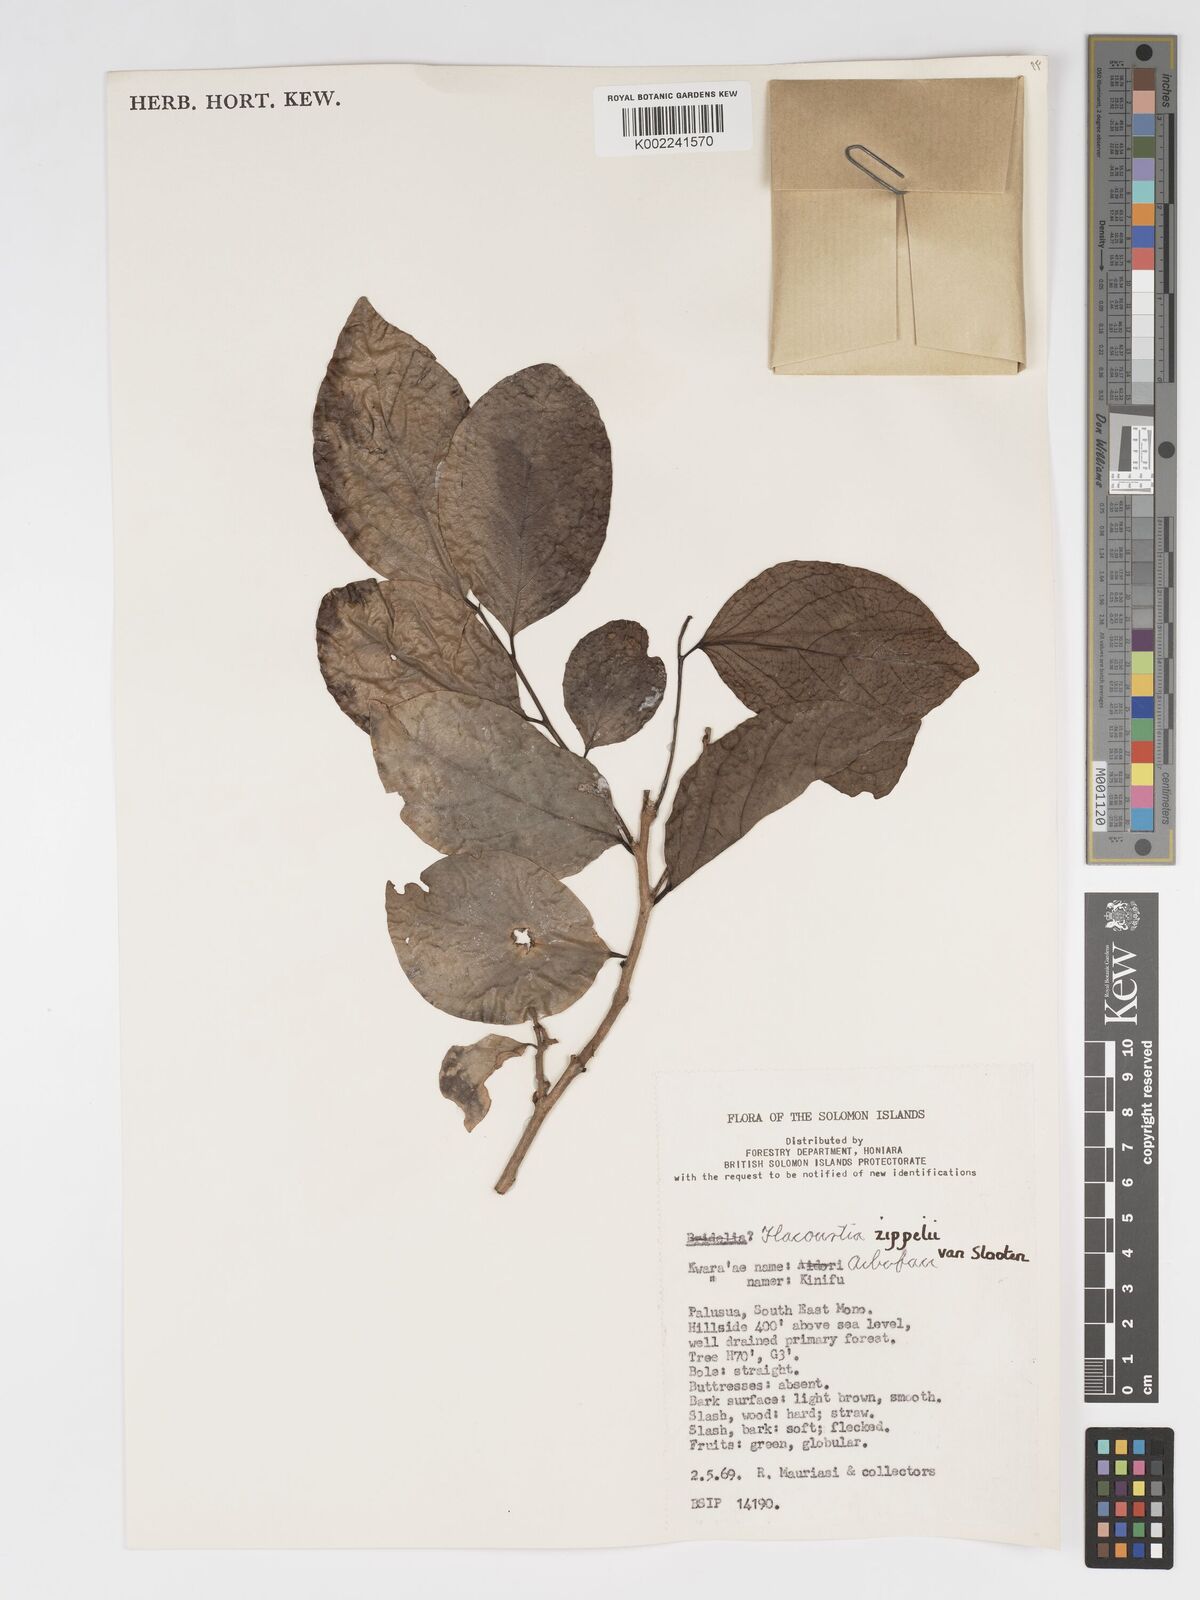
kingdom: Plantae
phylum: Tracheophyta
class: Magnoliopsida
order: Malpighiales
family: Salicaceae
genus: Flacourtia
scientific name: Flacourtia zippelii
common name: Zippeli plum
